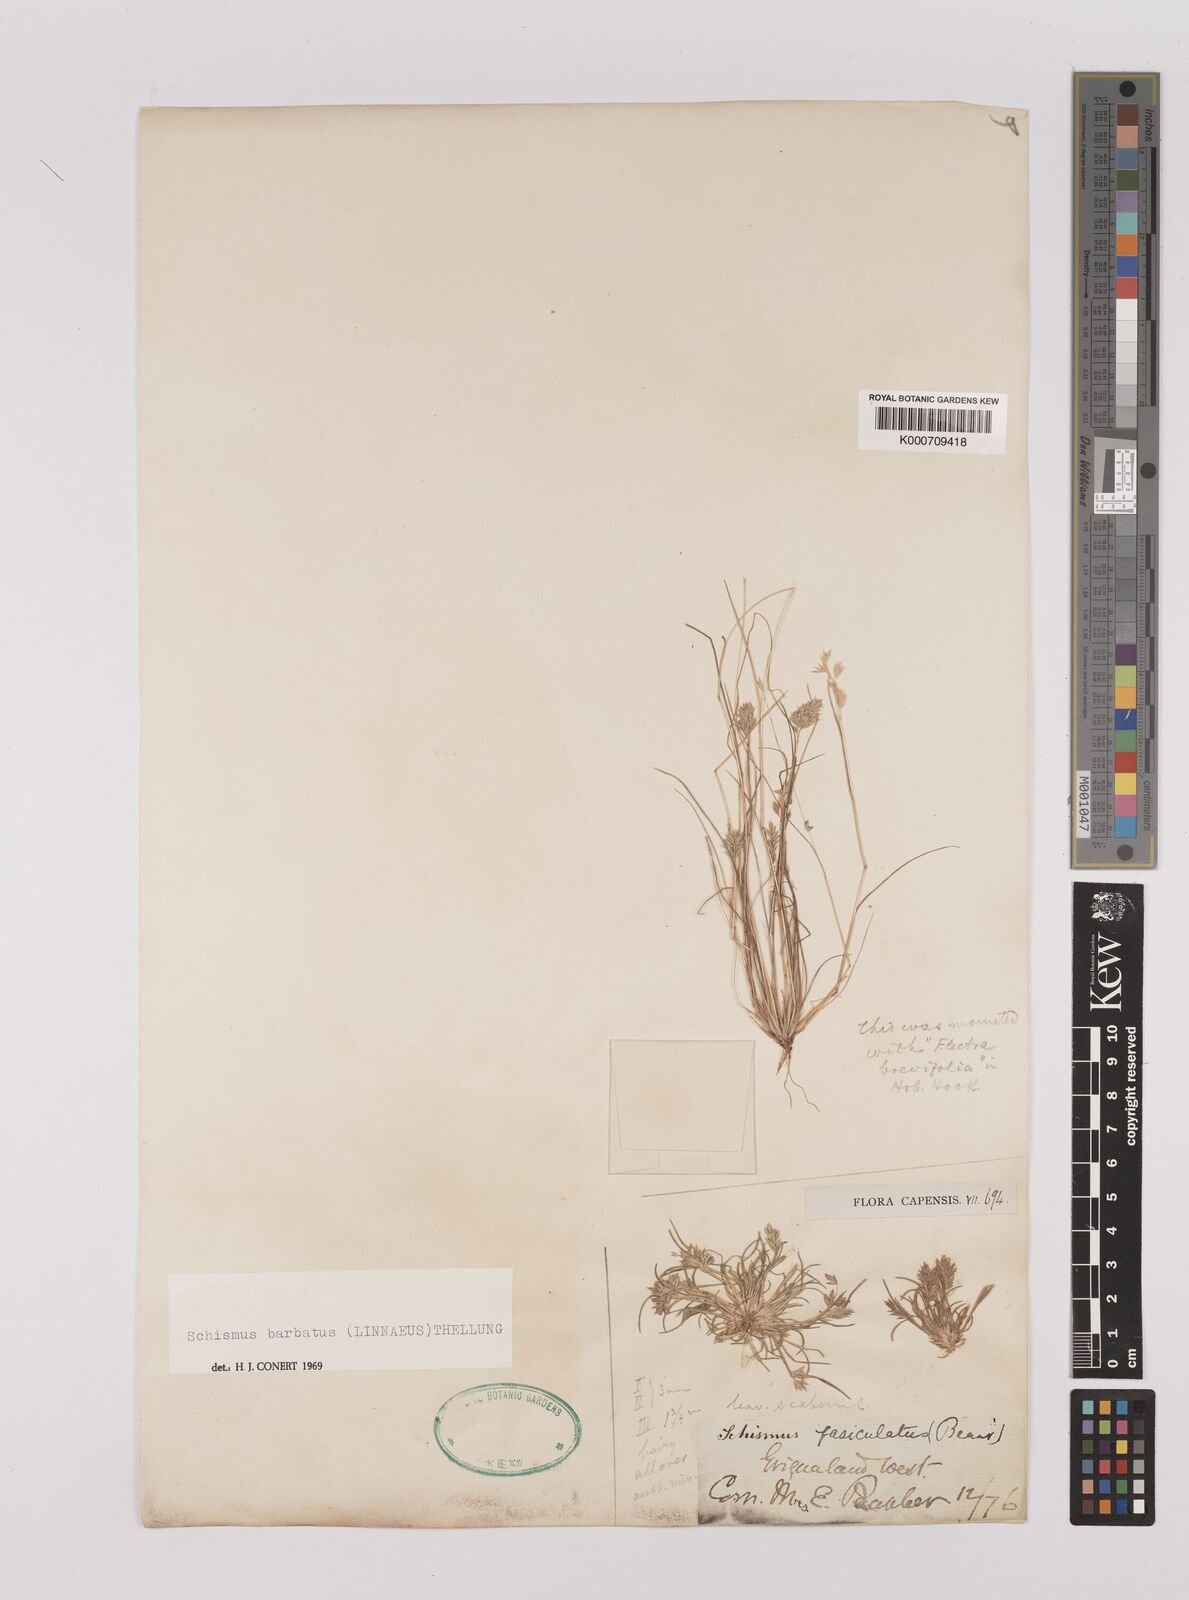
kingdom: Plantae
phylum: Tracheophyta
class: Liliopsida
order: Poales
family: Poaceae
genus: Schismus
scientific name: Schismus barbatus
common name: Kelch-grass
